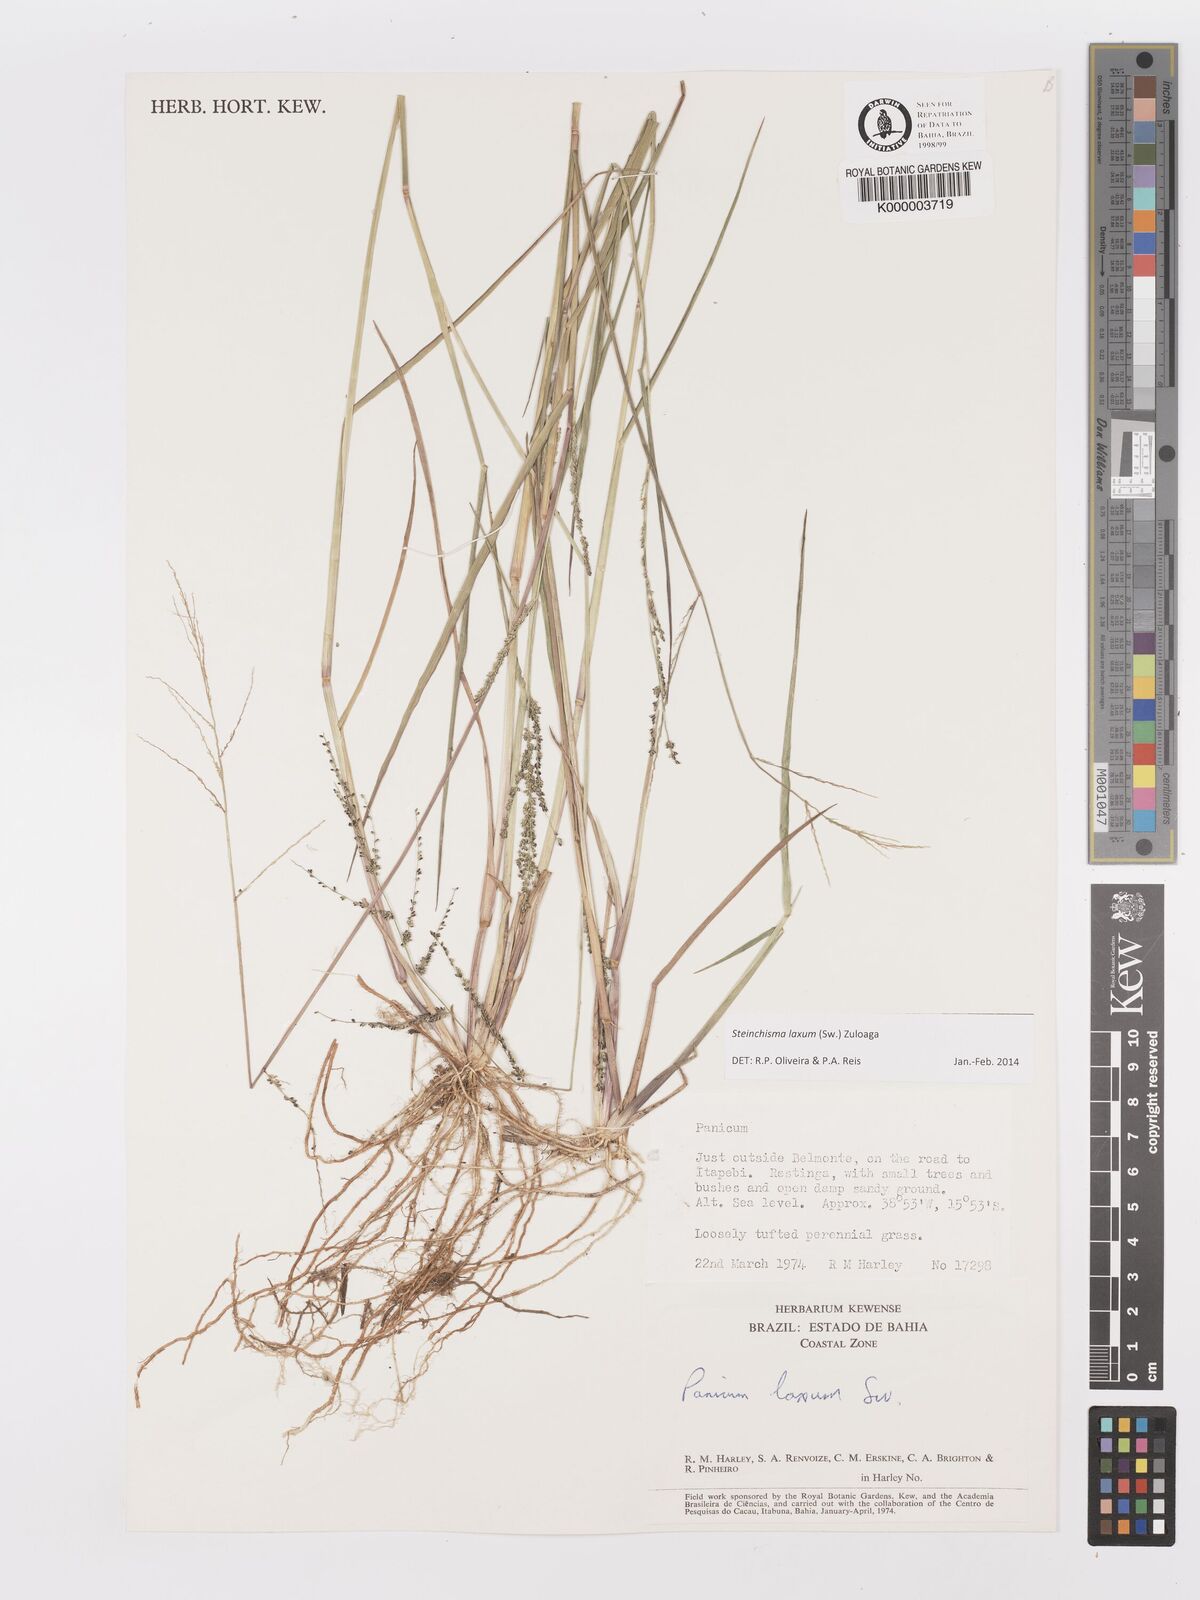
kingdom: Plantae
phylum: Tracheophyta
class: Liliopsida
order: Poales
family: Poaceae
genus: Panicum
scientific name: Panicum
